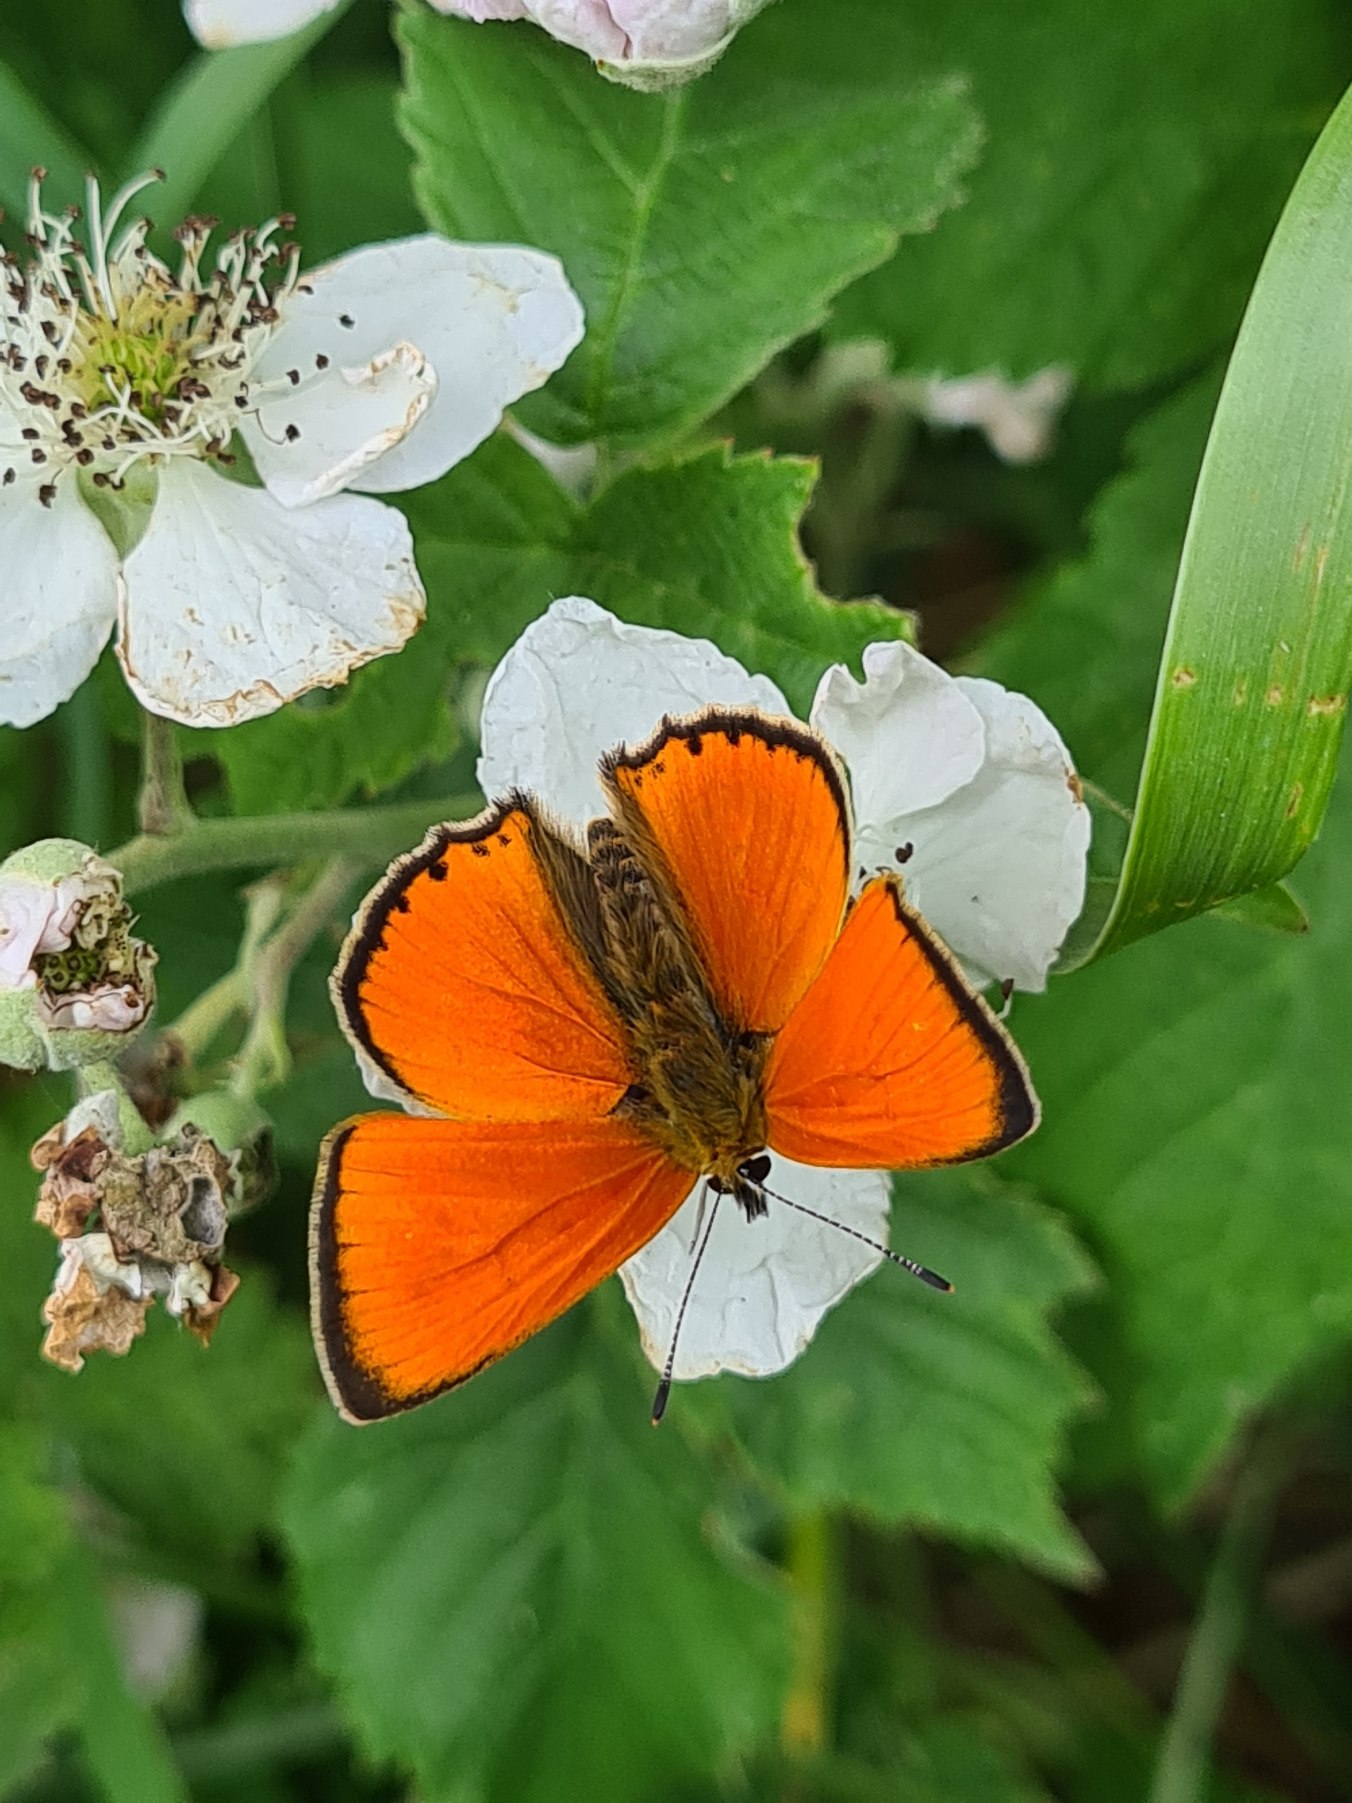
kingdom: Animalia
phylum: Arthropoda
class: Insecta
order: Lepidoptera
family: Lycaenidae
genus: Lycaena
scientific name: Lycaena virgaureae
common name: Dukatsommerfugl
